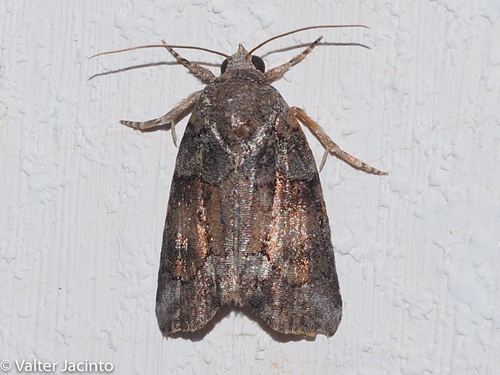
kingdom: Animalia
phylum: Arthropoda
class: Insecta
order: Lepidoptera
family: Noctuidae
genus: Bryophila
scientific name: Bryophila ravula
